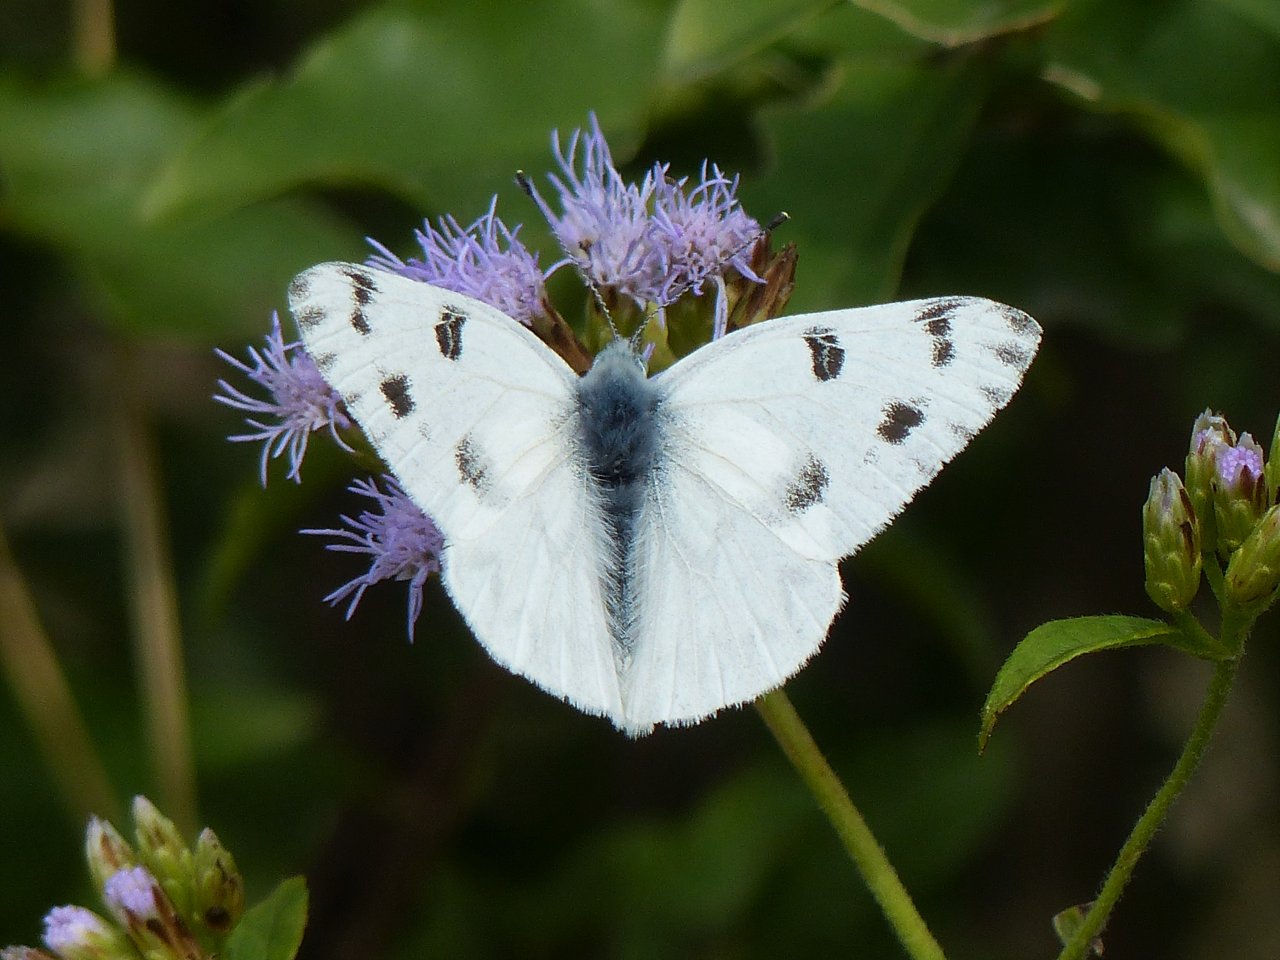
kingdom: Animalia
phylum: Arthropoda
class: Insecta
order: Lepidoptera
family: Pieridae
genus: Pontia
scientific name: Pontia protodice
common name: Checkered White
